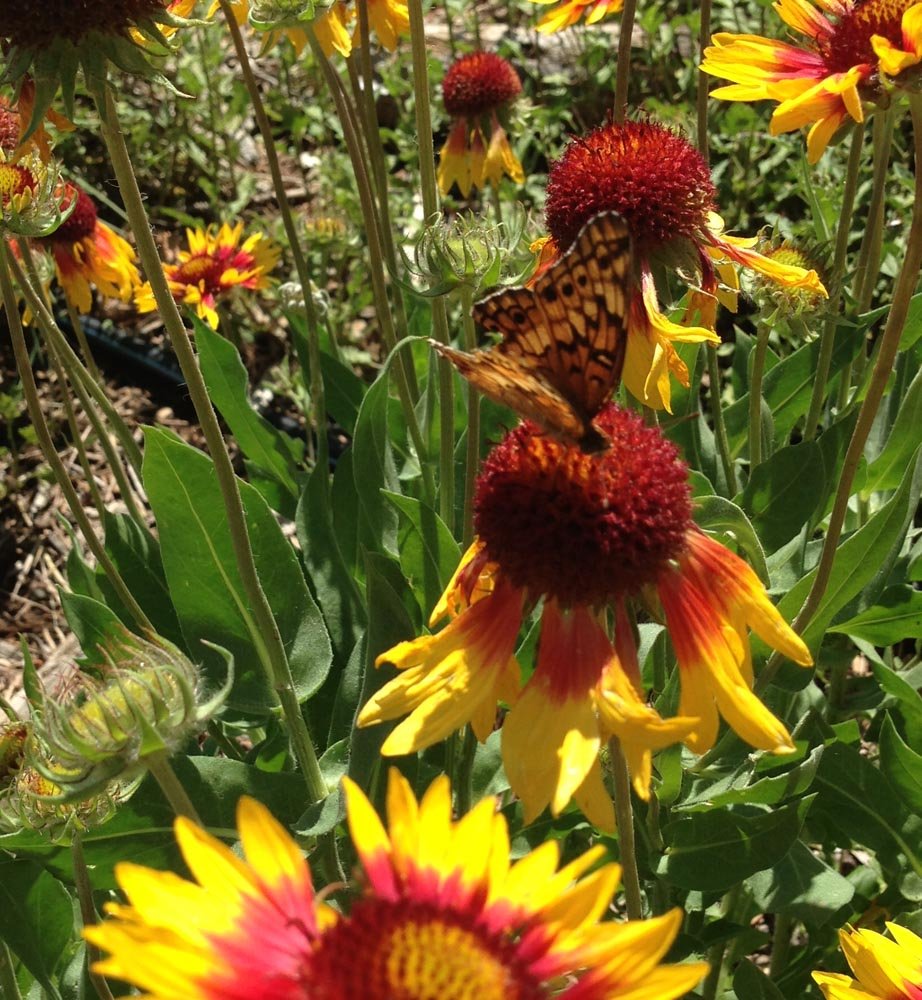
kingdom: Animalia
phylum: Arthropoda
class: Insecta
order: Lepidoptera
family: Nymphalidae
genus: Euptoieta
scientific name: Euptoieta claudia
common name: Variegated Fritillary
